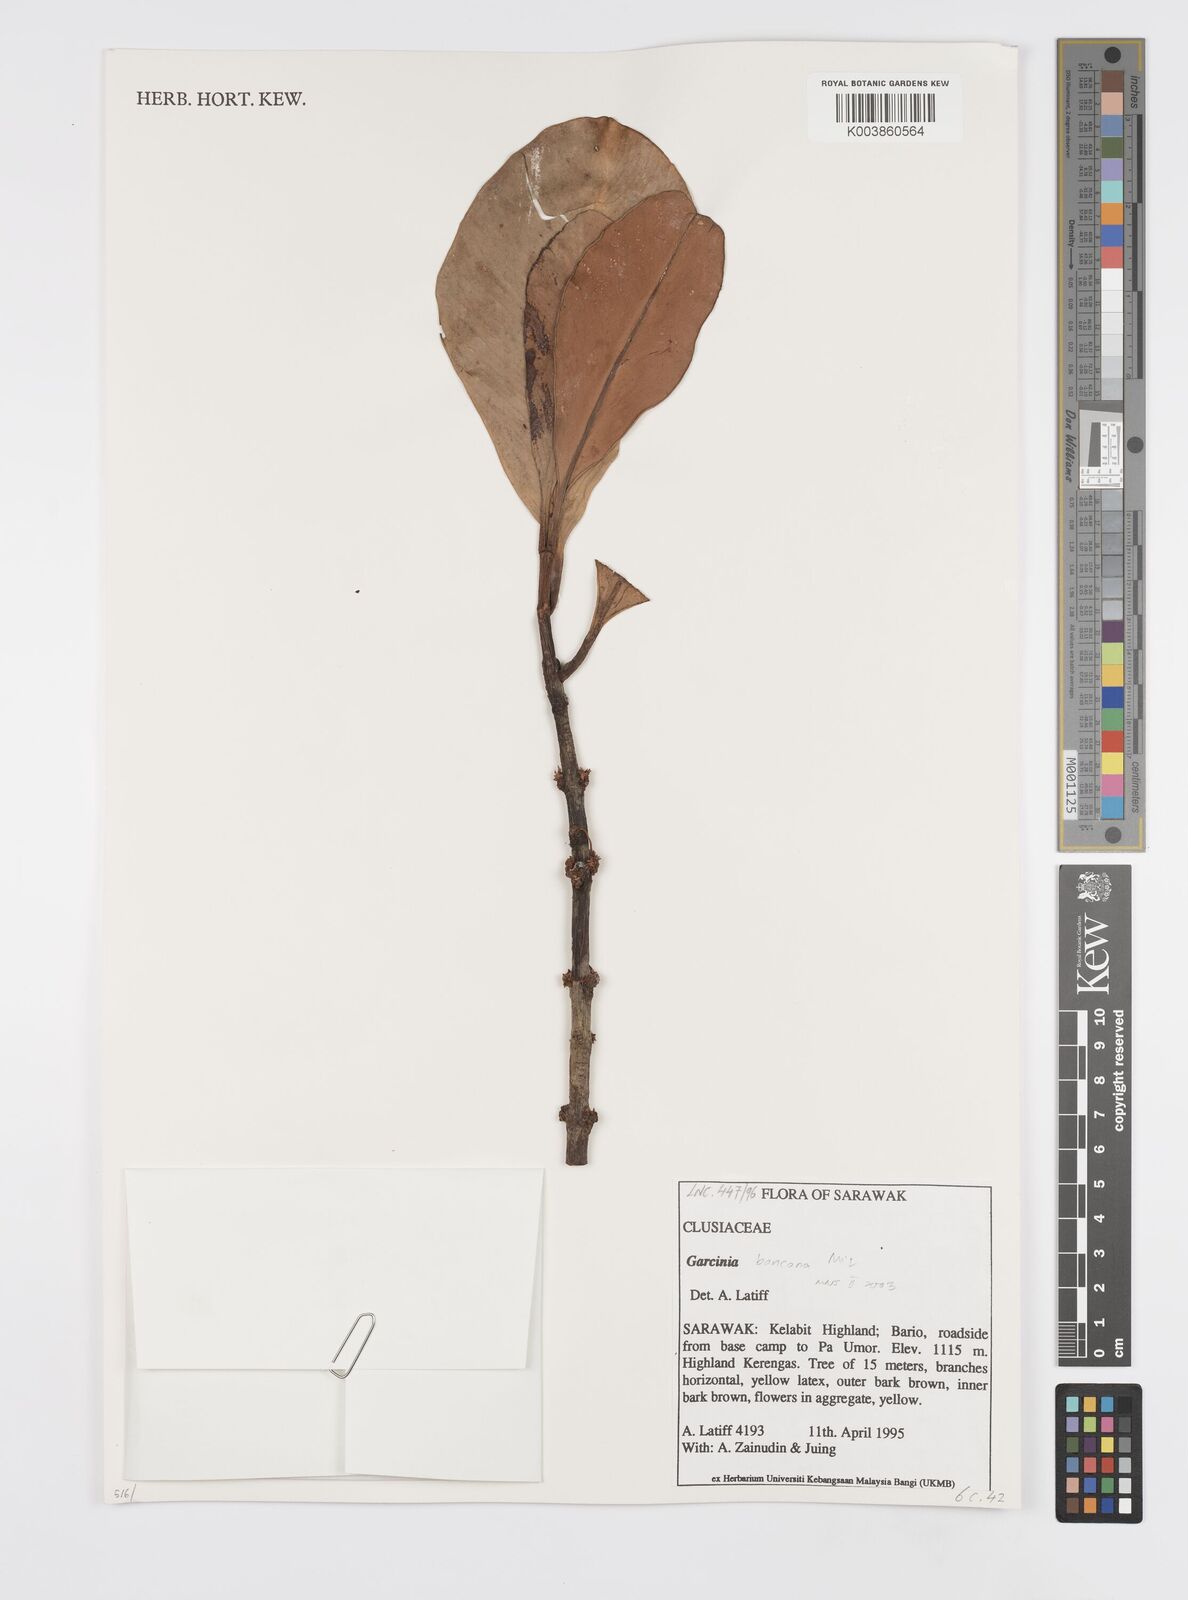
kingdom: Plantae
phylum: Tracheophyta
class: Magnoliopsida
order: Malpighiales
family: Clusiaceae
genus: Garcinia
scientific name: Garcinia bancana
